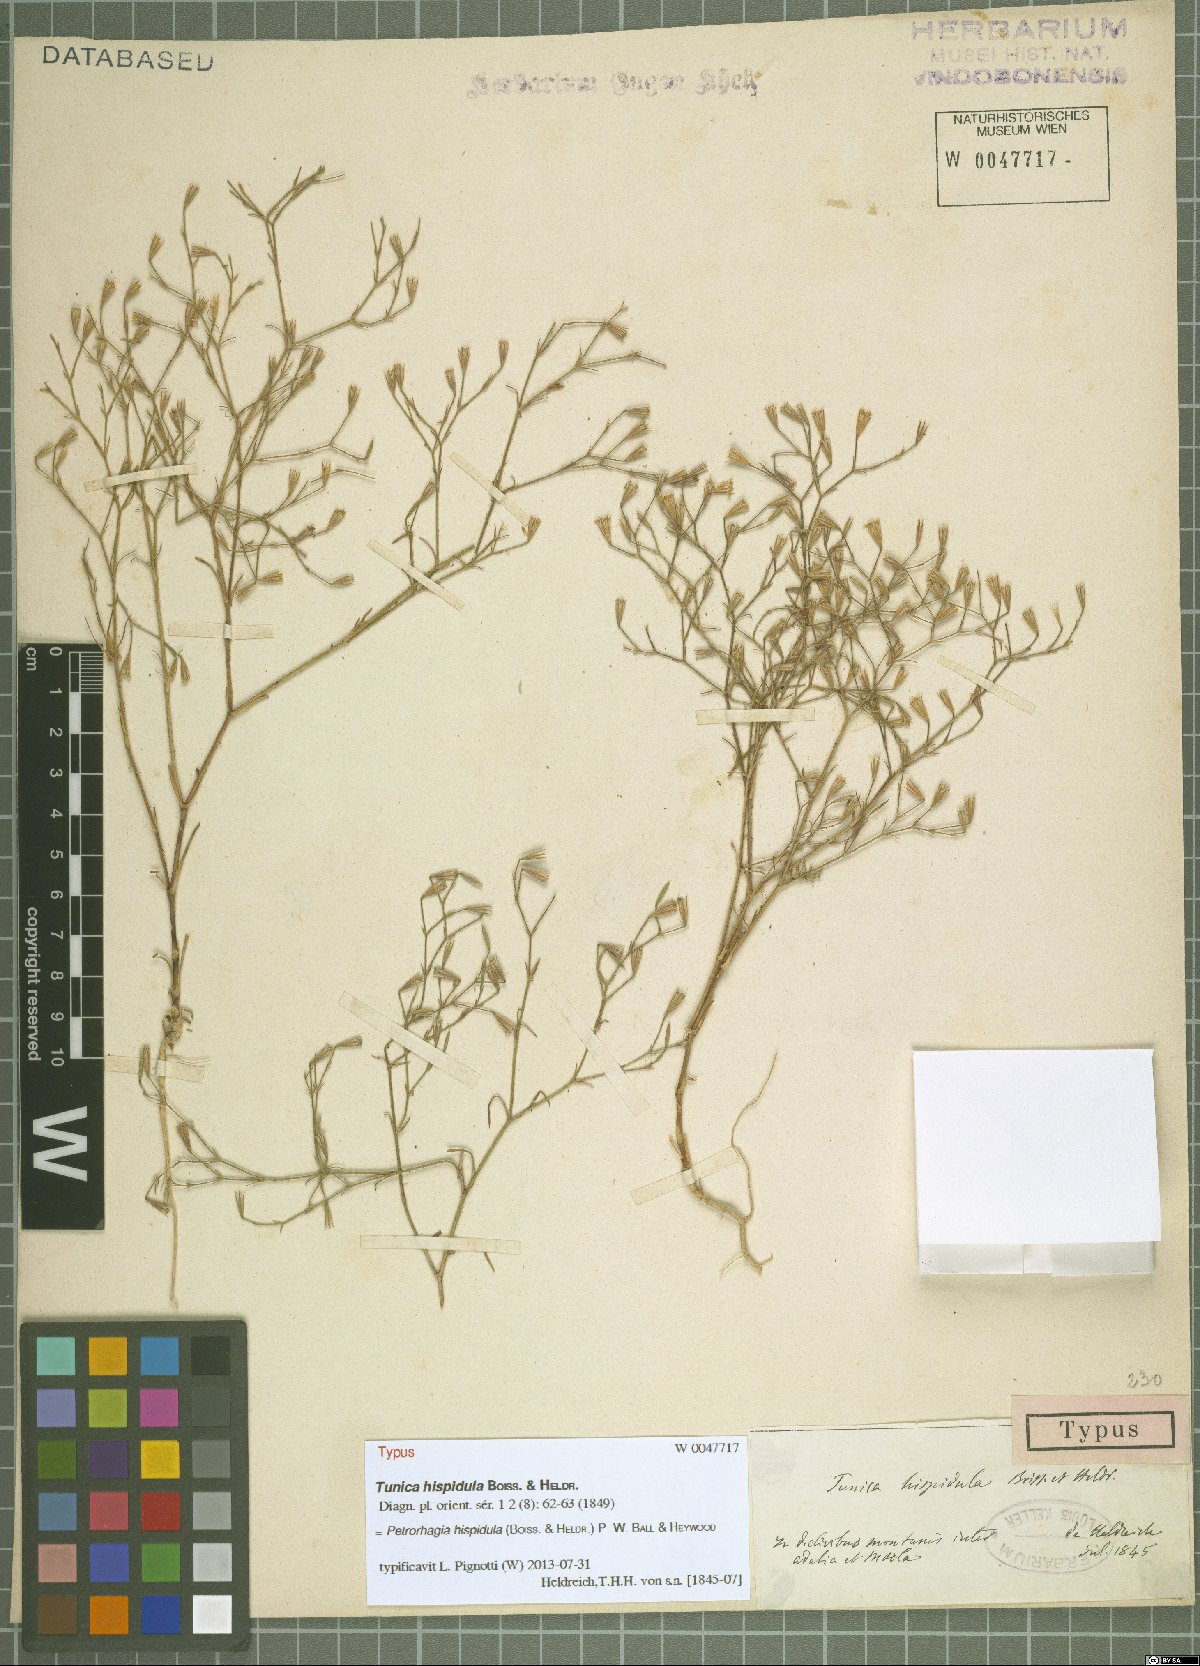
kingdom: Plantae
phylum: Tracheophyta
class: Magnoliopsida
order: Caryophyllales
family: Caryophyllaceae
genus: Petrorhagia
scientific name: Petrorhagia hispidula
